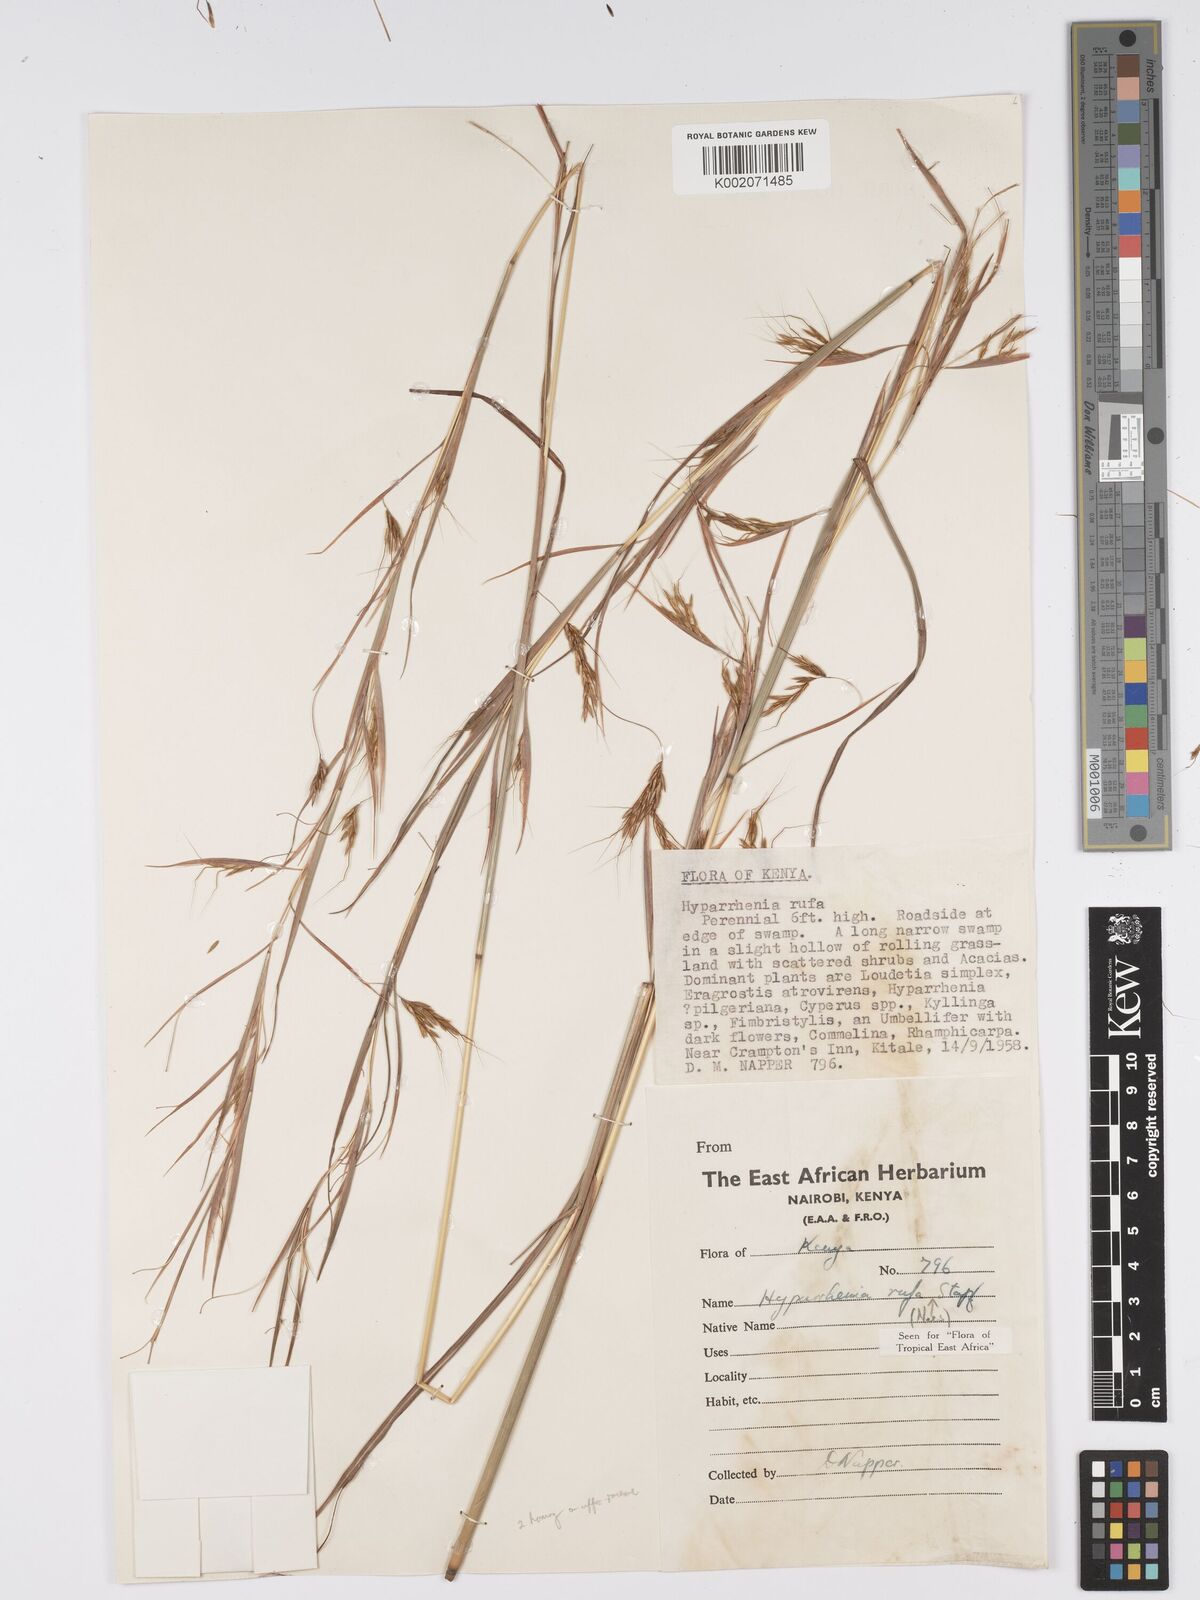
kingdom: Plantae
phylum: Tracheophyta
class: Liliopsida
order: Poales
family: Poaceae
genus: Hyparrhenia
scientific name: Hyparrhenia rufa
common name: Jaraguagrass
